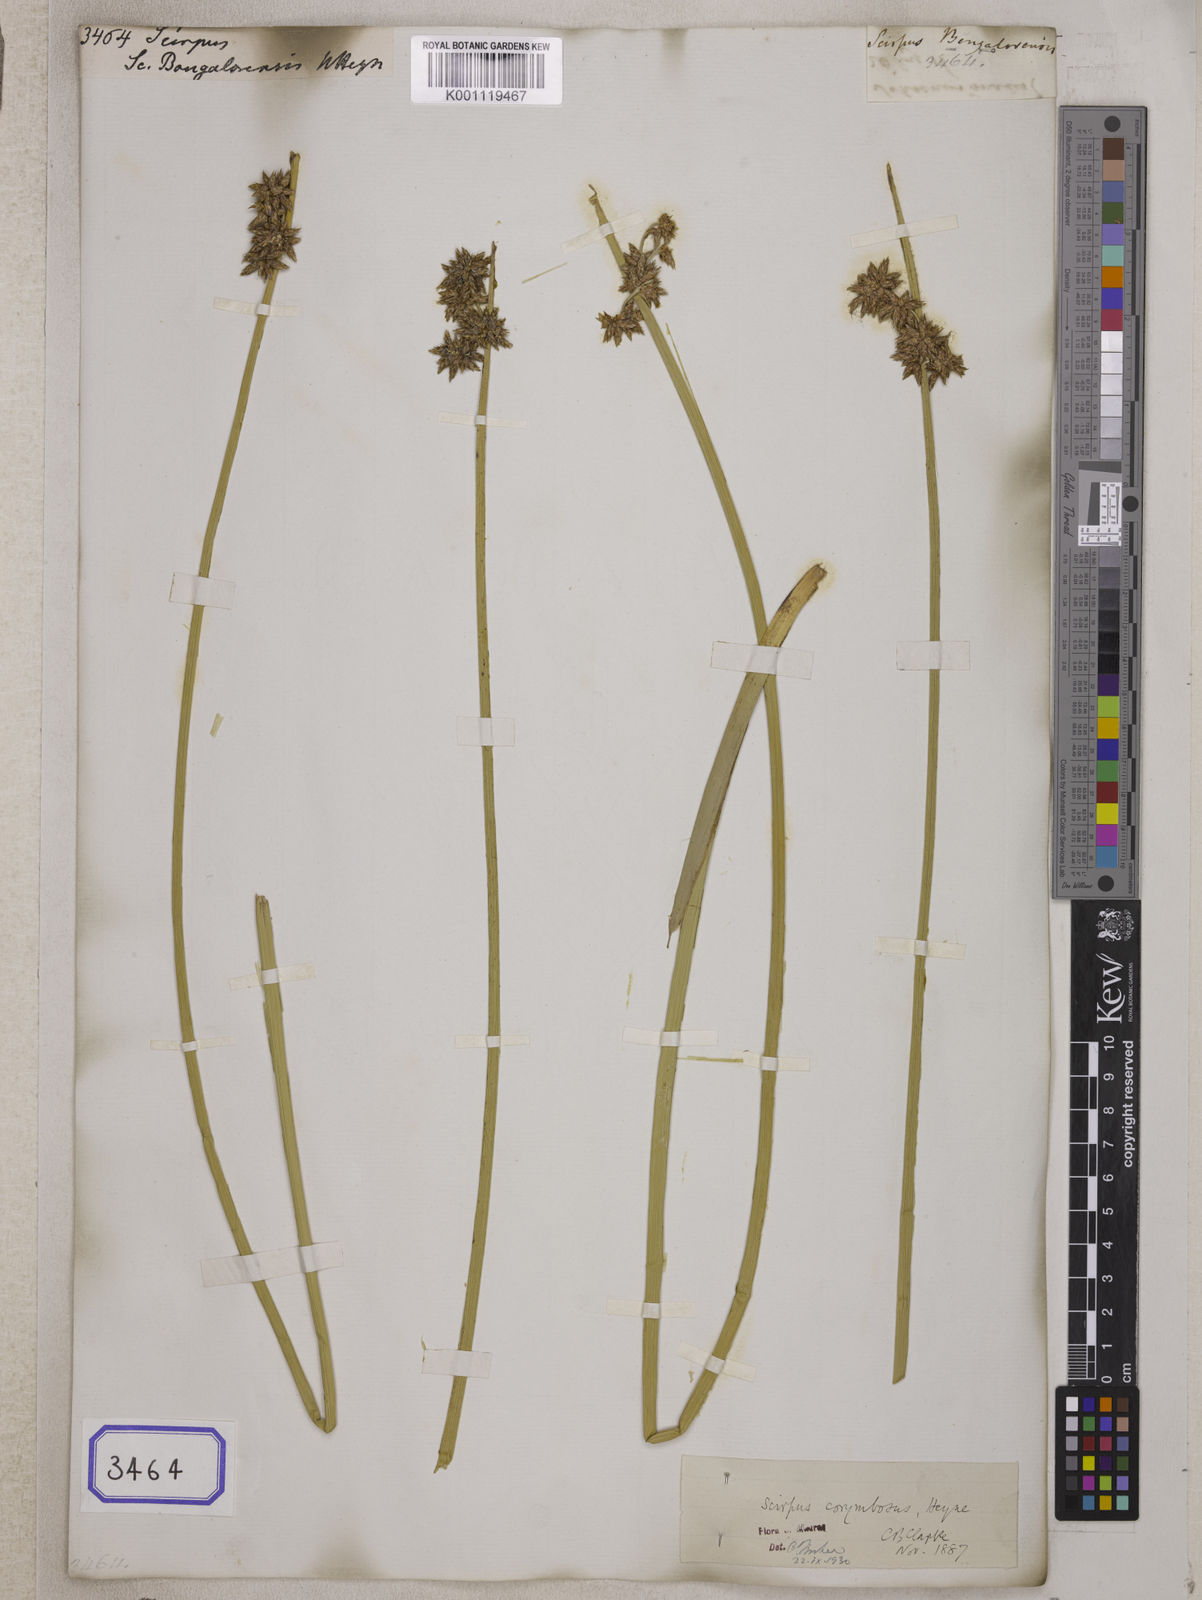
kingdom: Plantae
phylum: Tracheophyta
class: Liliopsida
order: Poales
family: Cyperaceae
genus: Scirpus
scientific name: Scirpus
